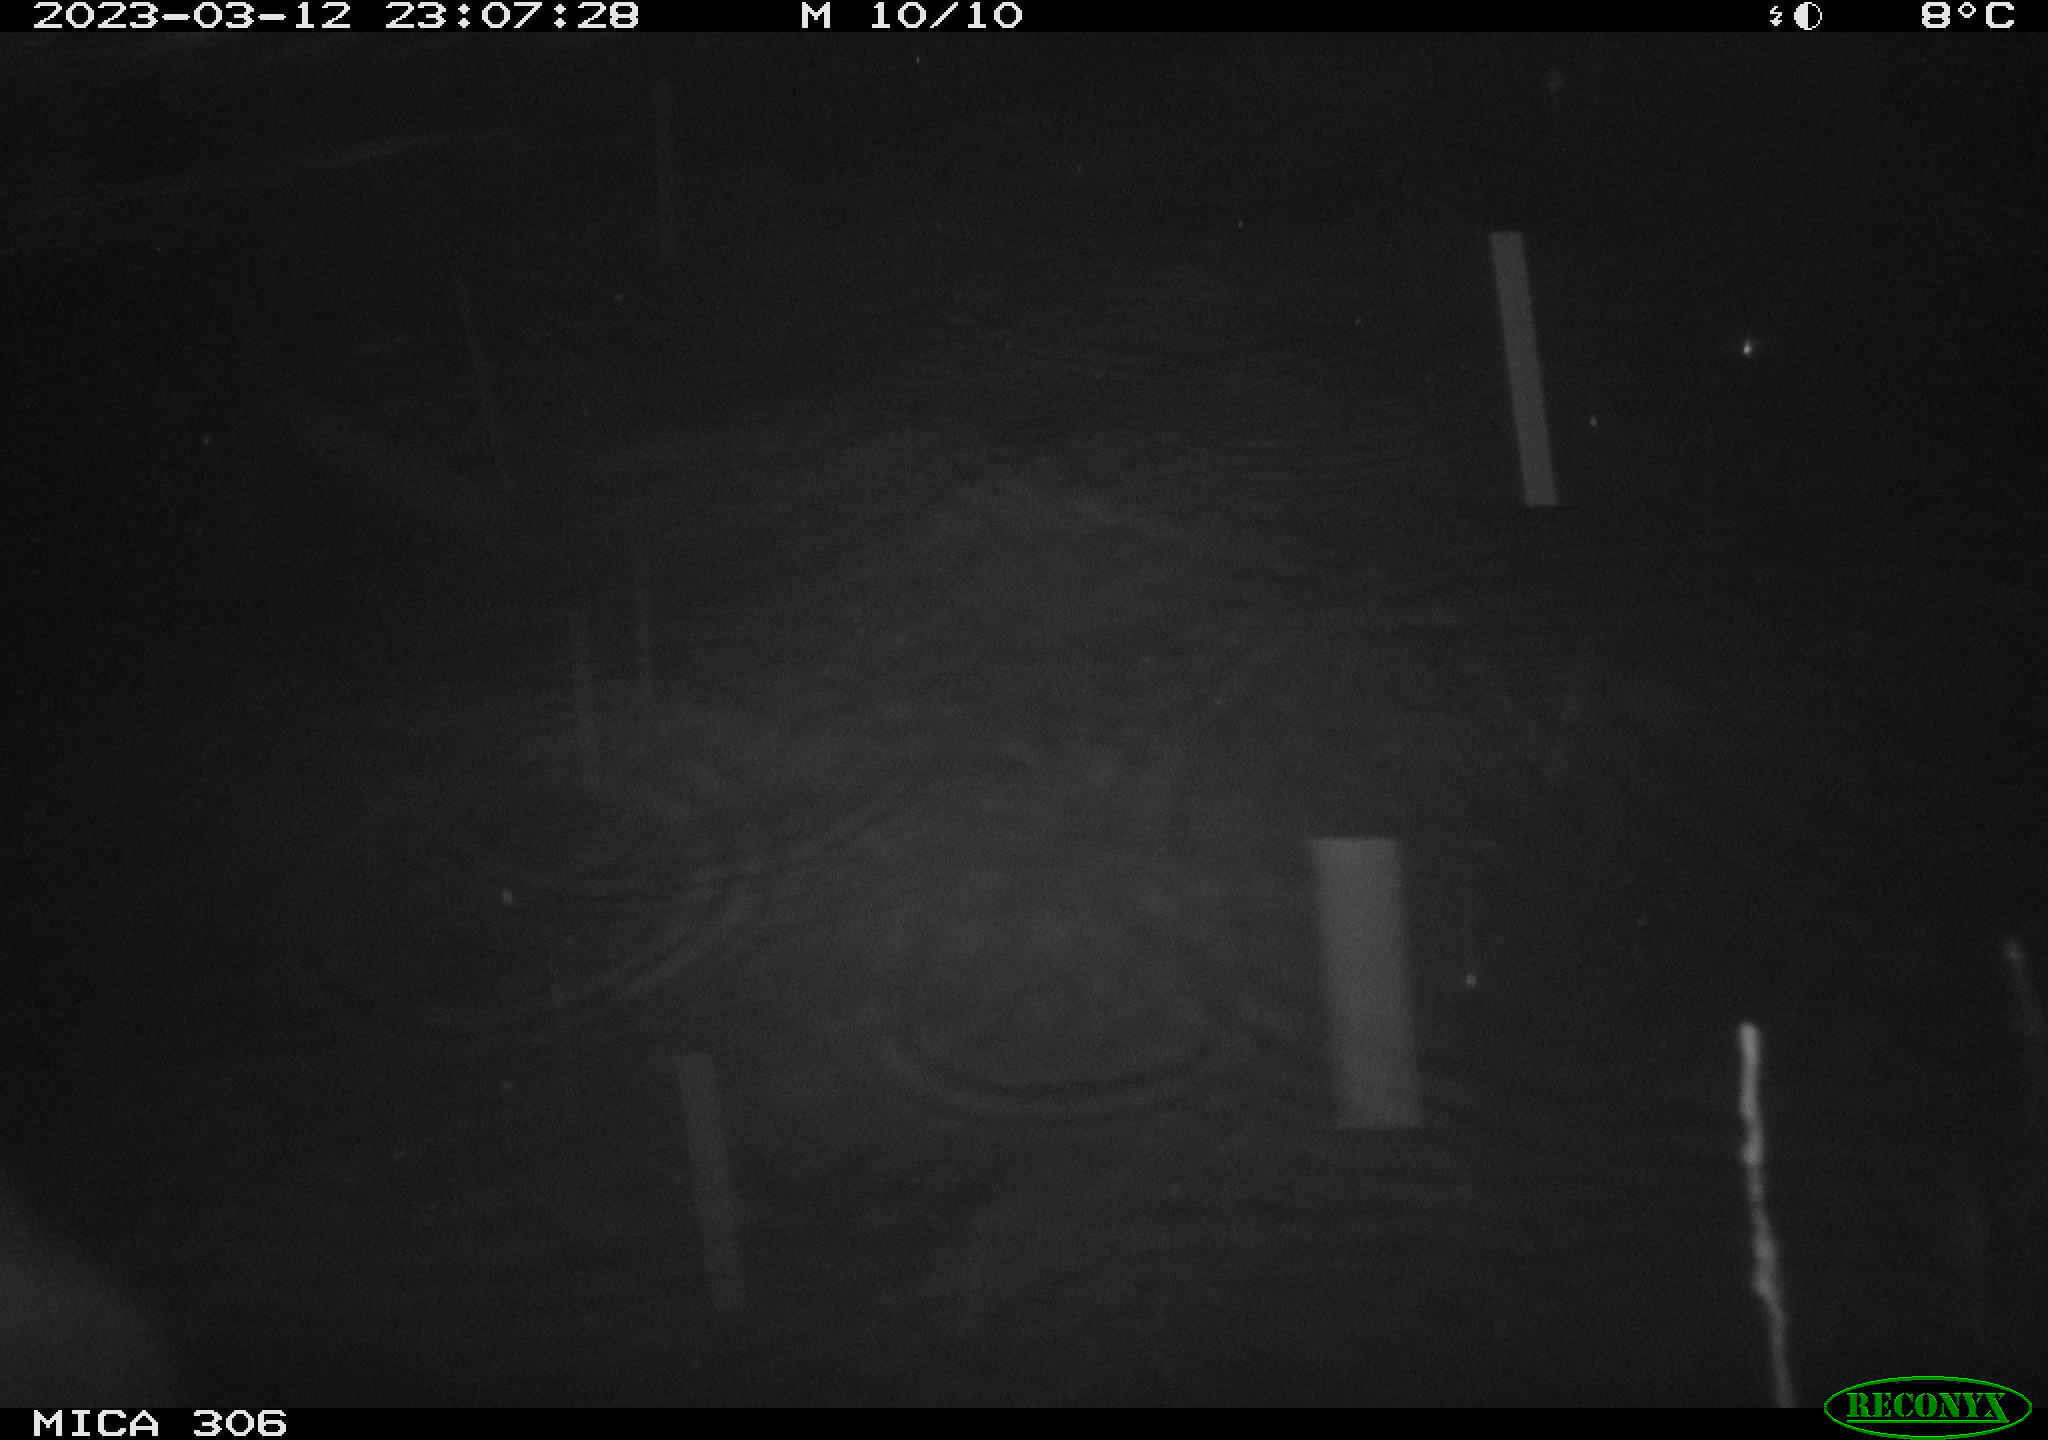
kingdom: Animalia
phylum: Chordata
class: Mammalia
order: Rodentia
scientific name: Rodentia
